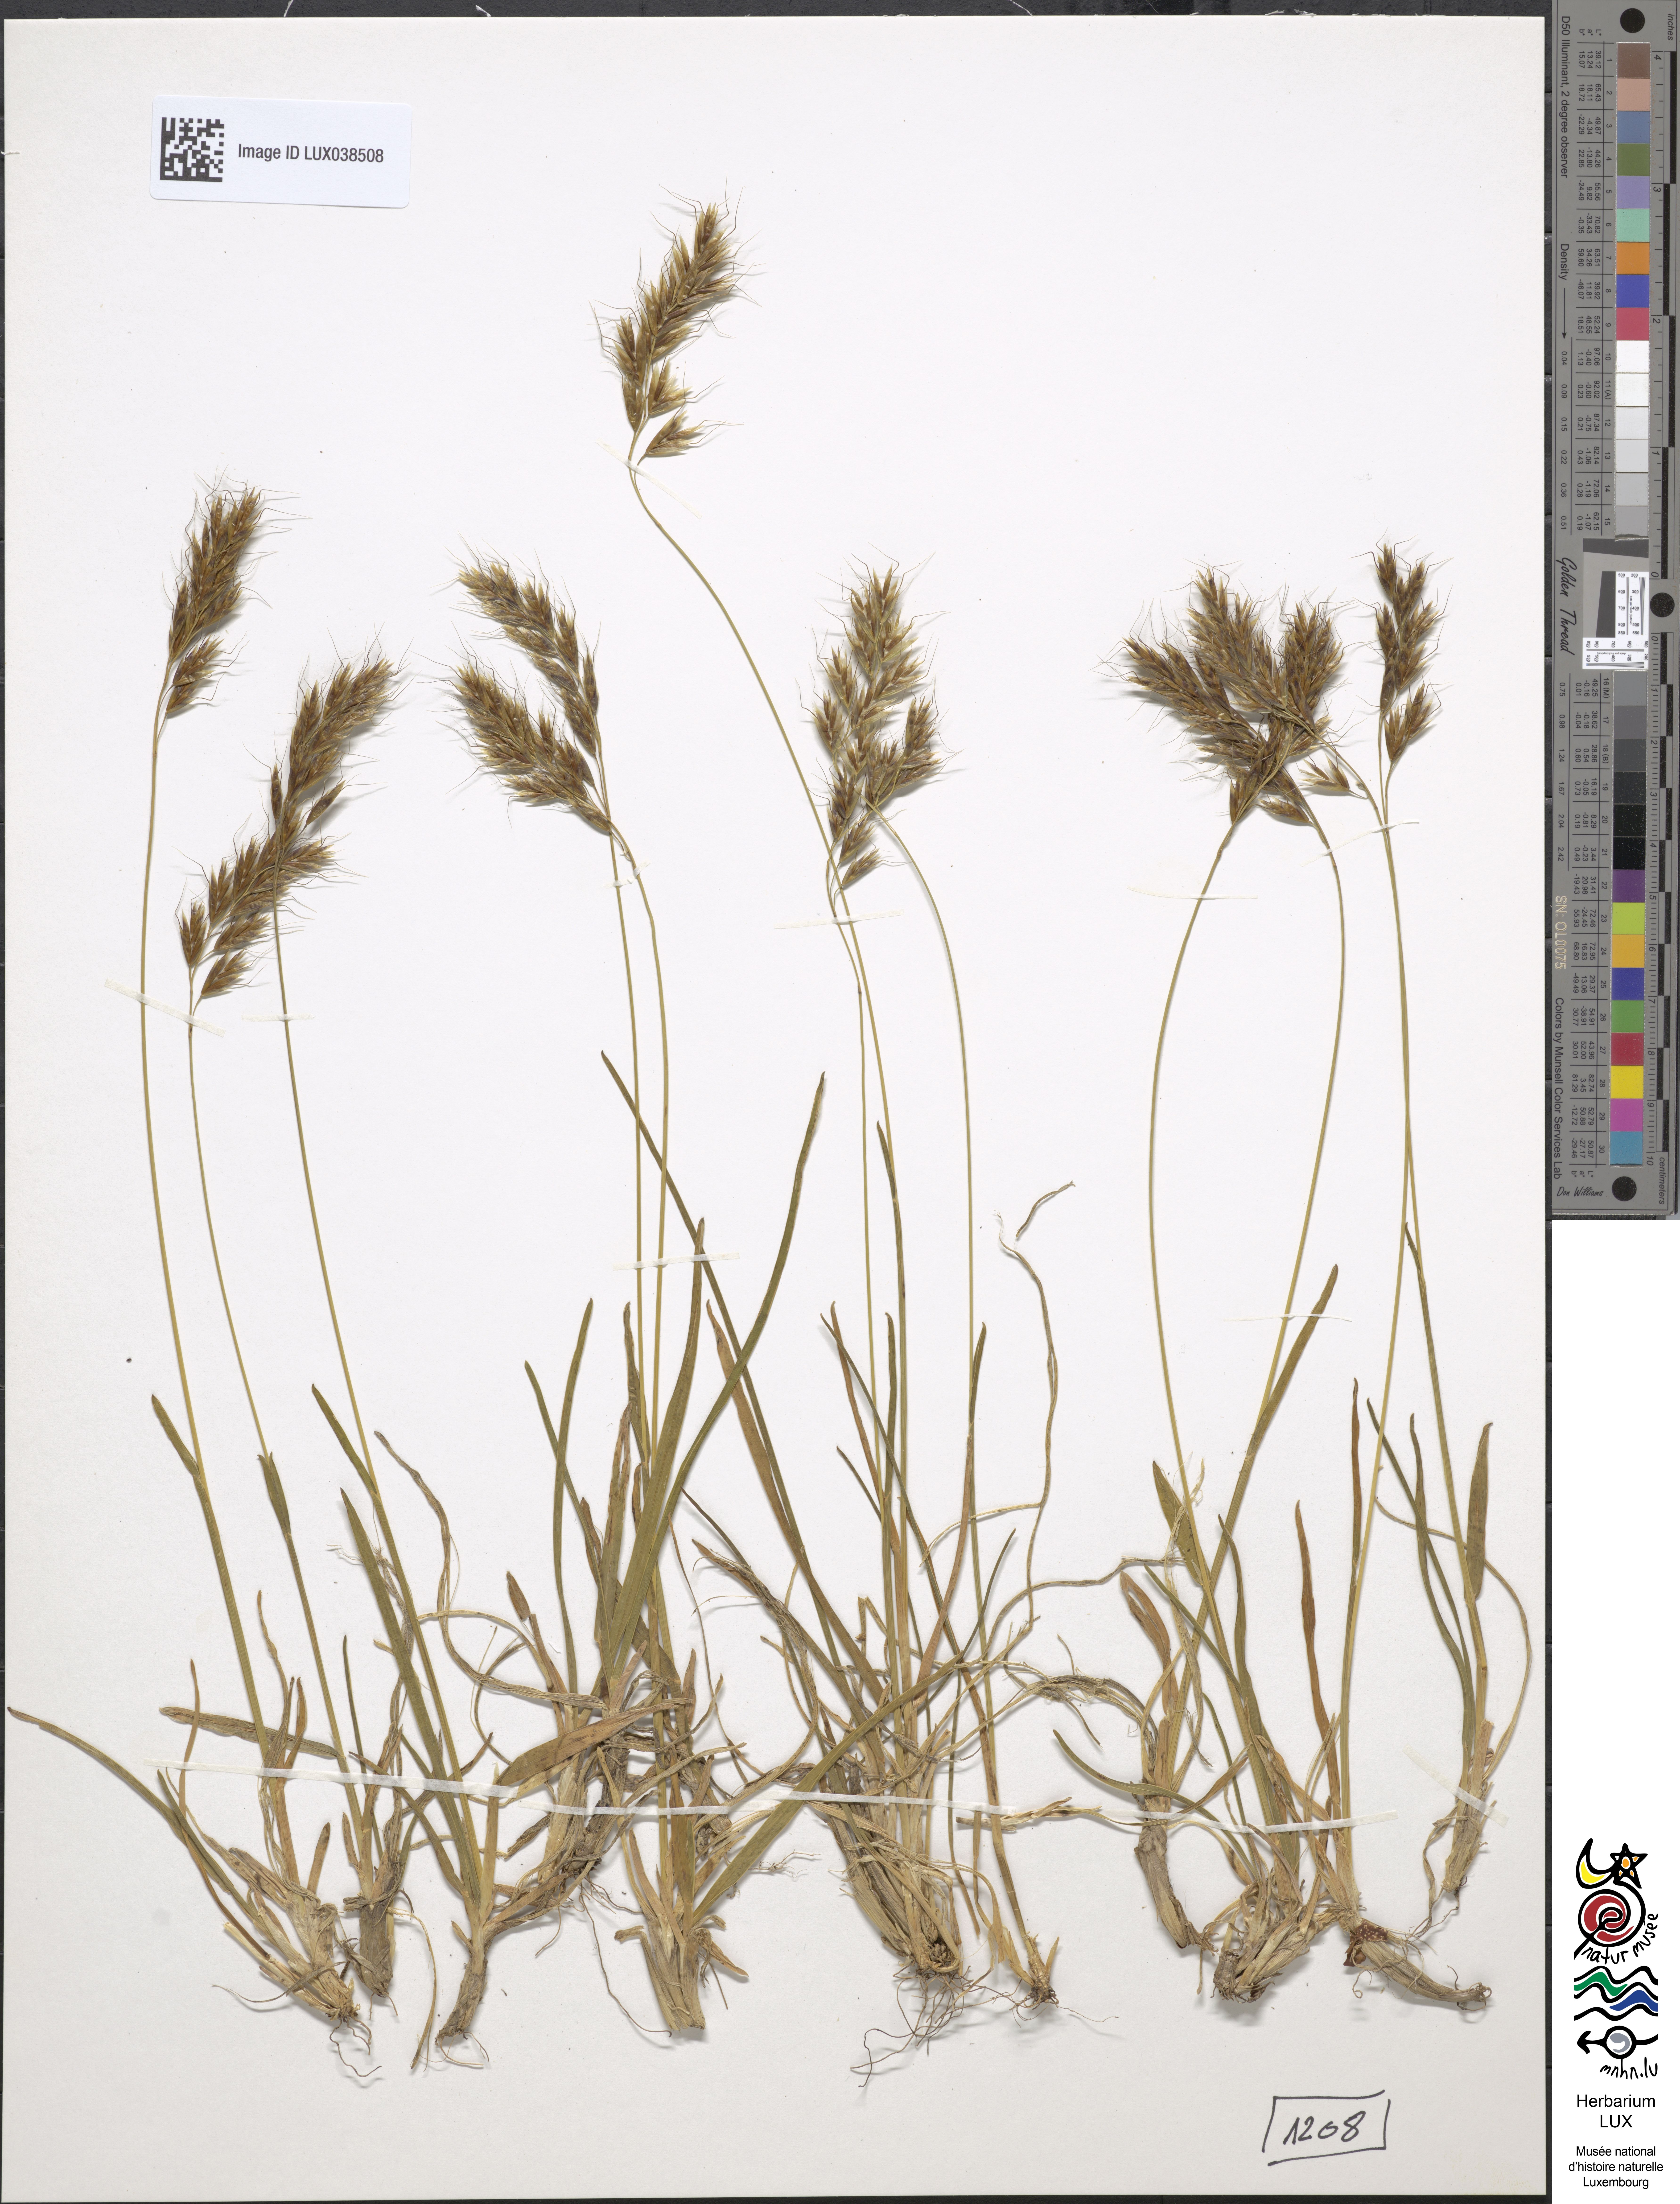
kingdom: Plantae
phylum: Tracheophyta
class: Liliopsida
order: Poales
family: Poaceae
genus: Helictochloa
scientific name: Helictochloa versicolor
